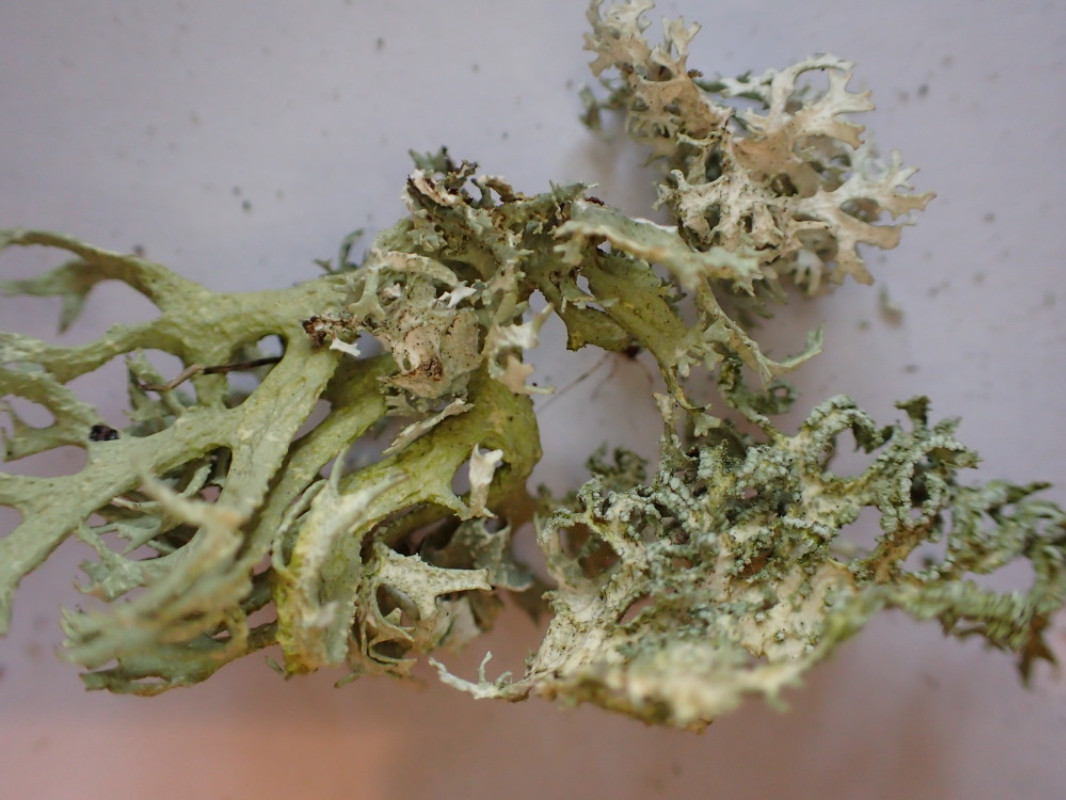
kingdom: Fungi
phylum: Ascomycota
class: Lecanoromycetes
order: Lecanorales
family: Parmeliaceae
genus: Evernia
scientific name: Evernia prunastri
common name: almindelig slåenlav
